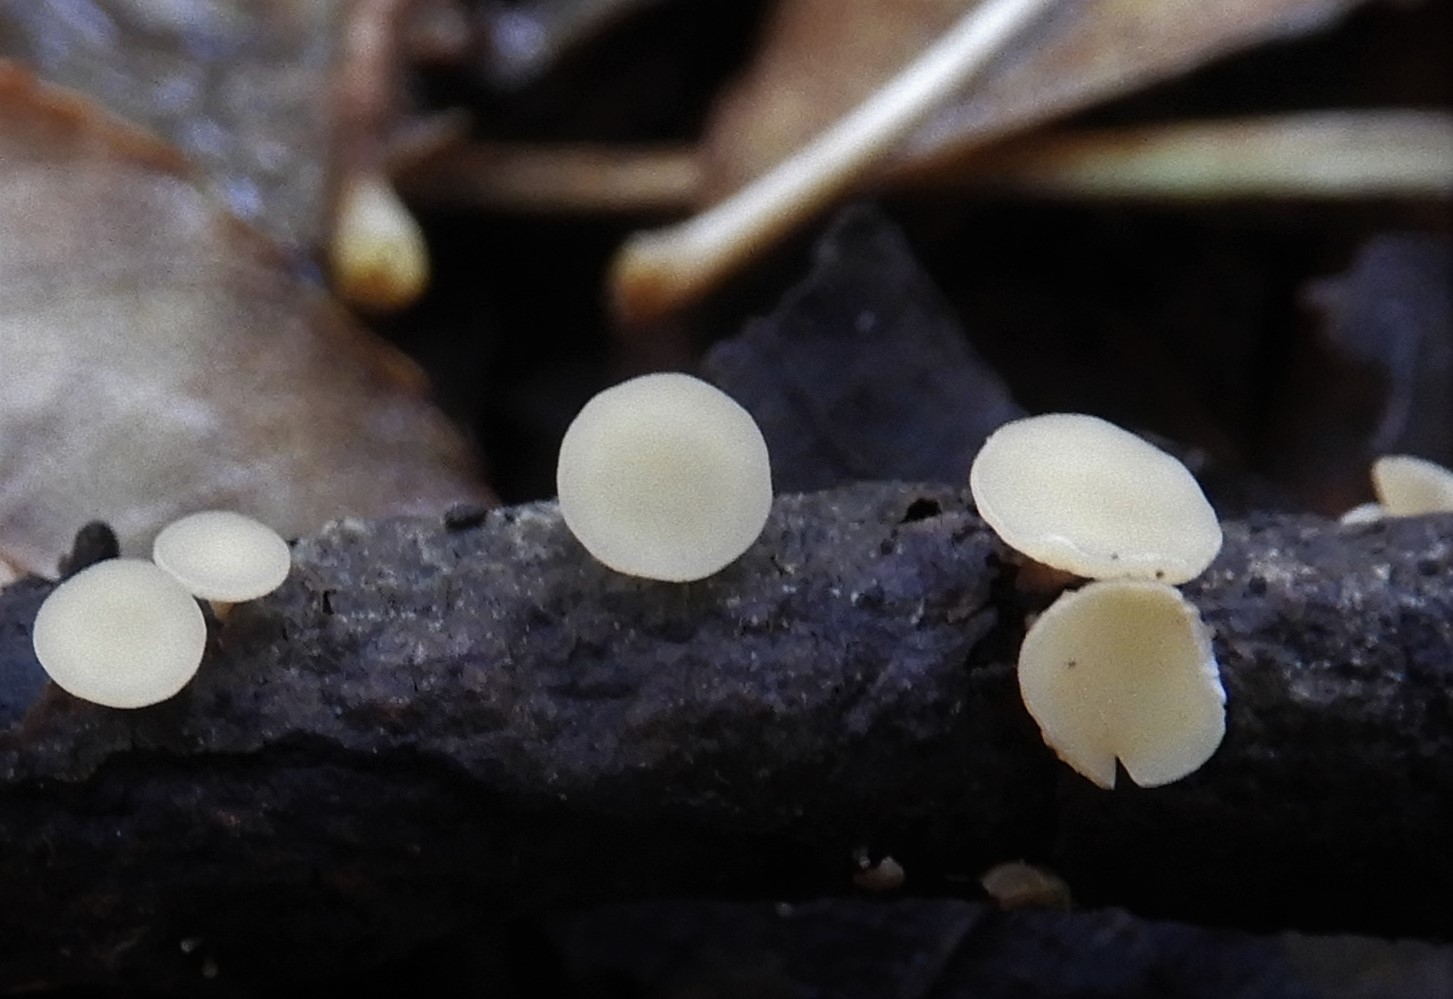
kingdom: Fungi
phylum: Ascomycota
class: Leotiomycetes
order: Helotiales
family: Helotiaceae
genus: Hymenoscyphus
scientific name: Hymenoscyphus
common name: stilkskive
